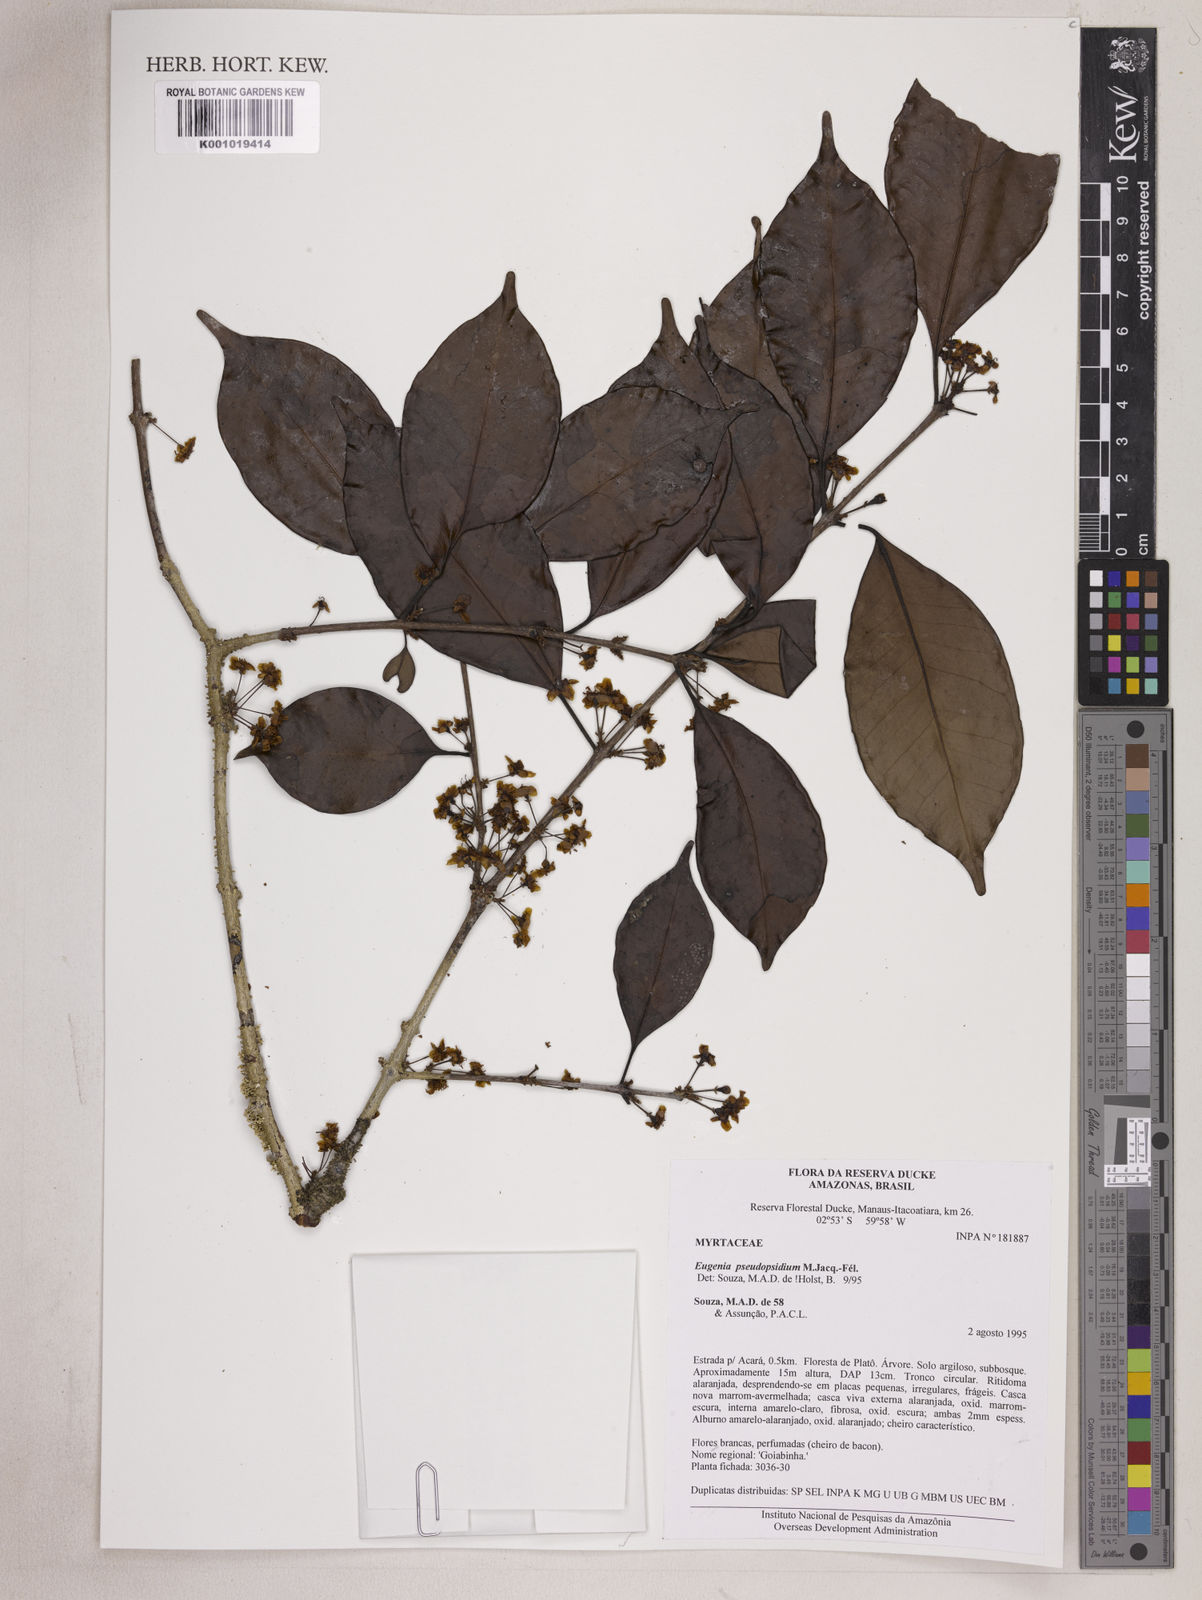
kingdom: Plantae
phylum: Tracheophyta
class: Magnoliopsida
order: Myrtales
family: Myrtaceae
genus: Eugenia
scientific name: Eugenia pseudopsidium
